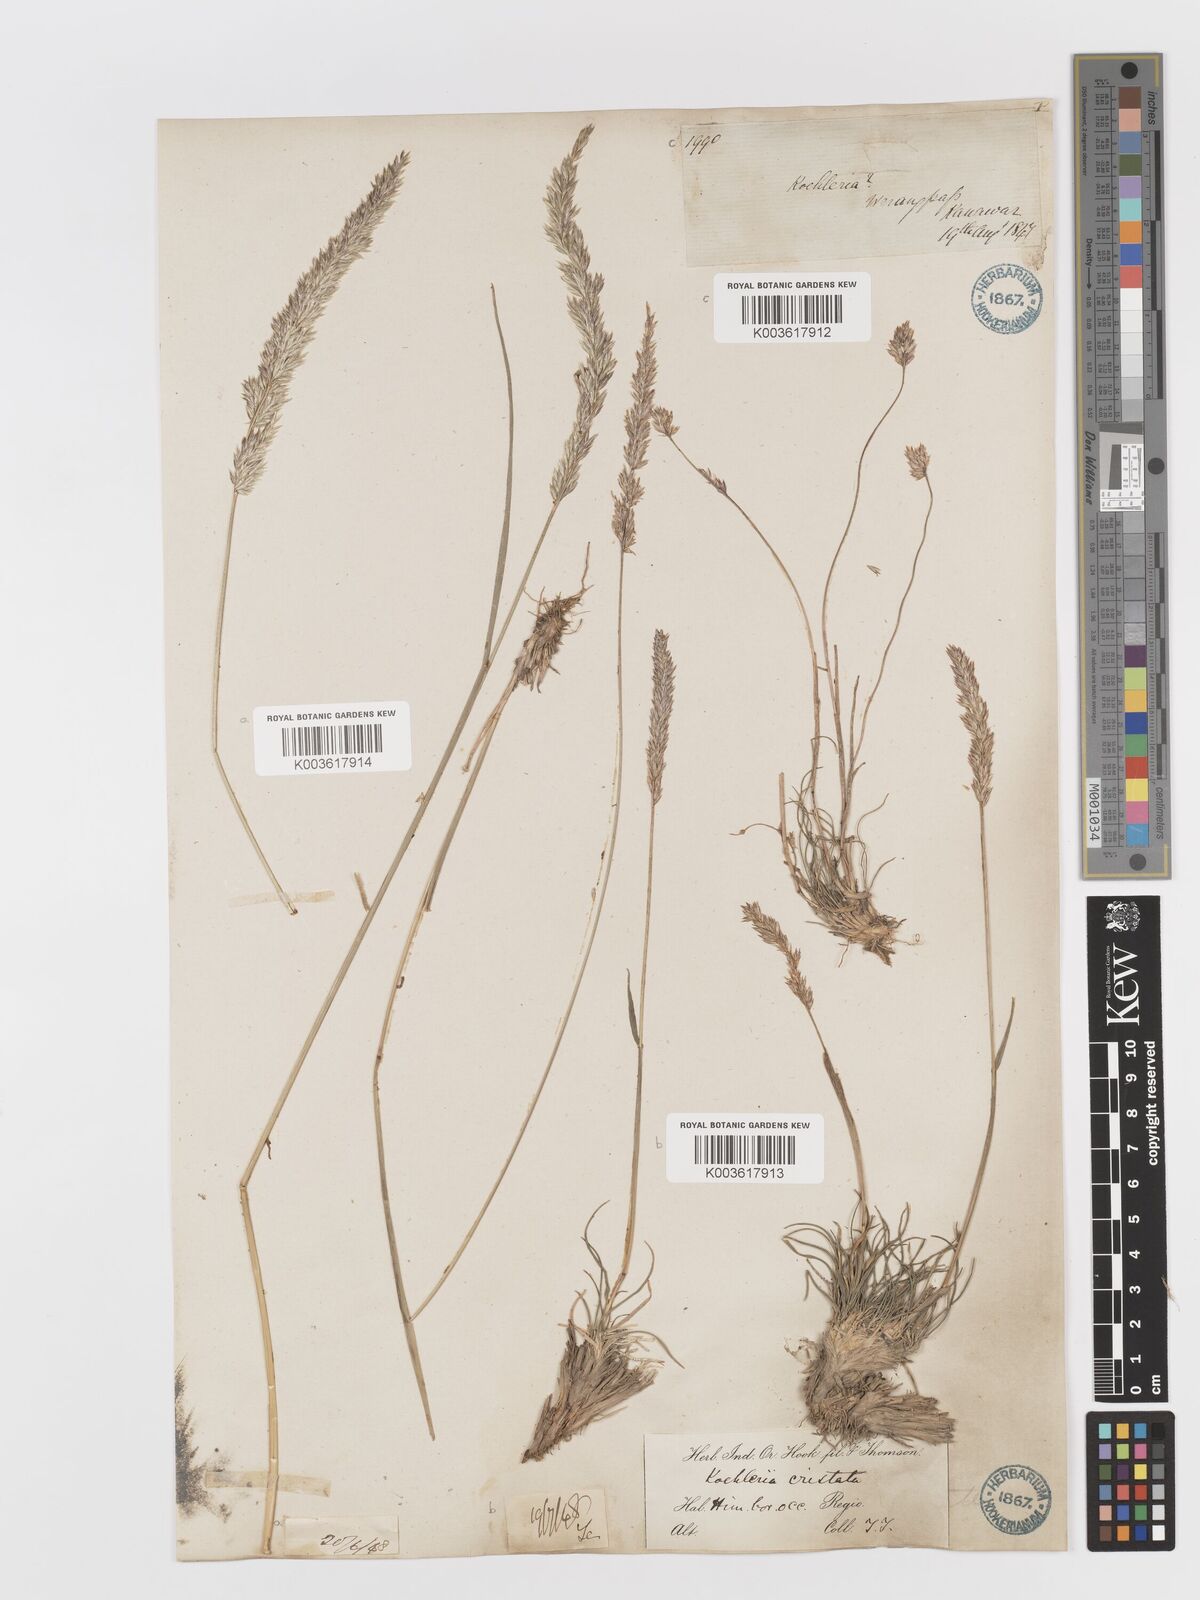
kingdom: Plantae
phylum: Tracheophyta
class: Liliopsida
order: Poales
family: Poaceae
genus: Koeleria
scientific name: Koeleria
